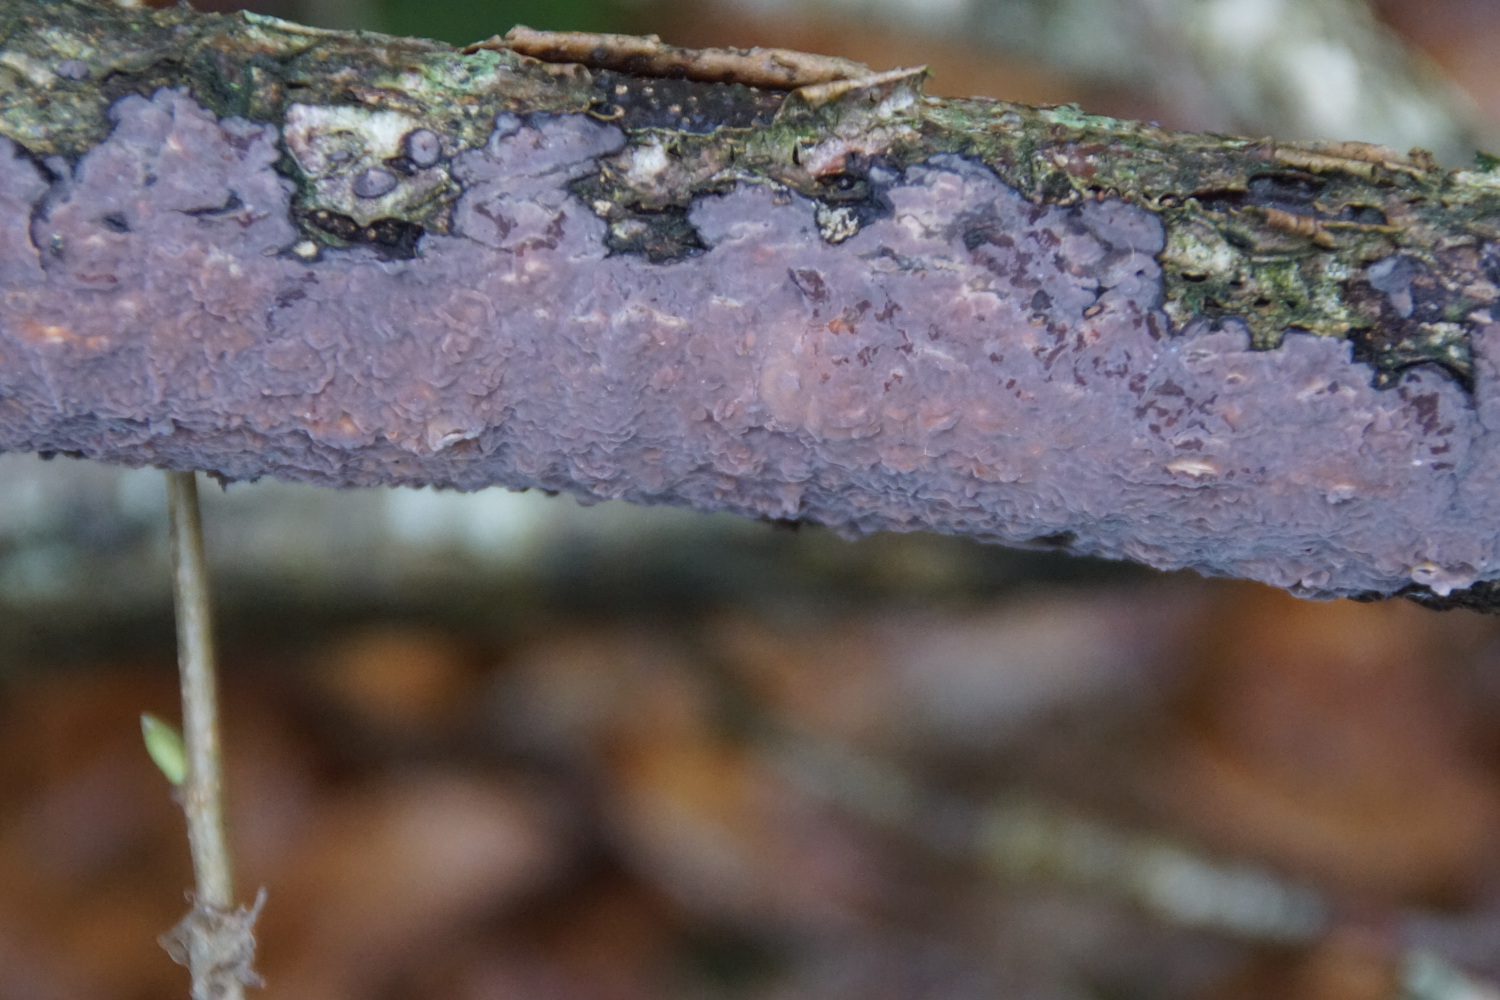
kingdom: Fungi
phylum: Basidiomycota
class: Agaricomycetes
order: Russulales
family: Peniophoraceae
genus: Peniophora
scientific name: Peniophora quercina
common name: ege-voksskind
